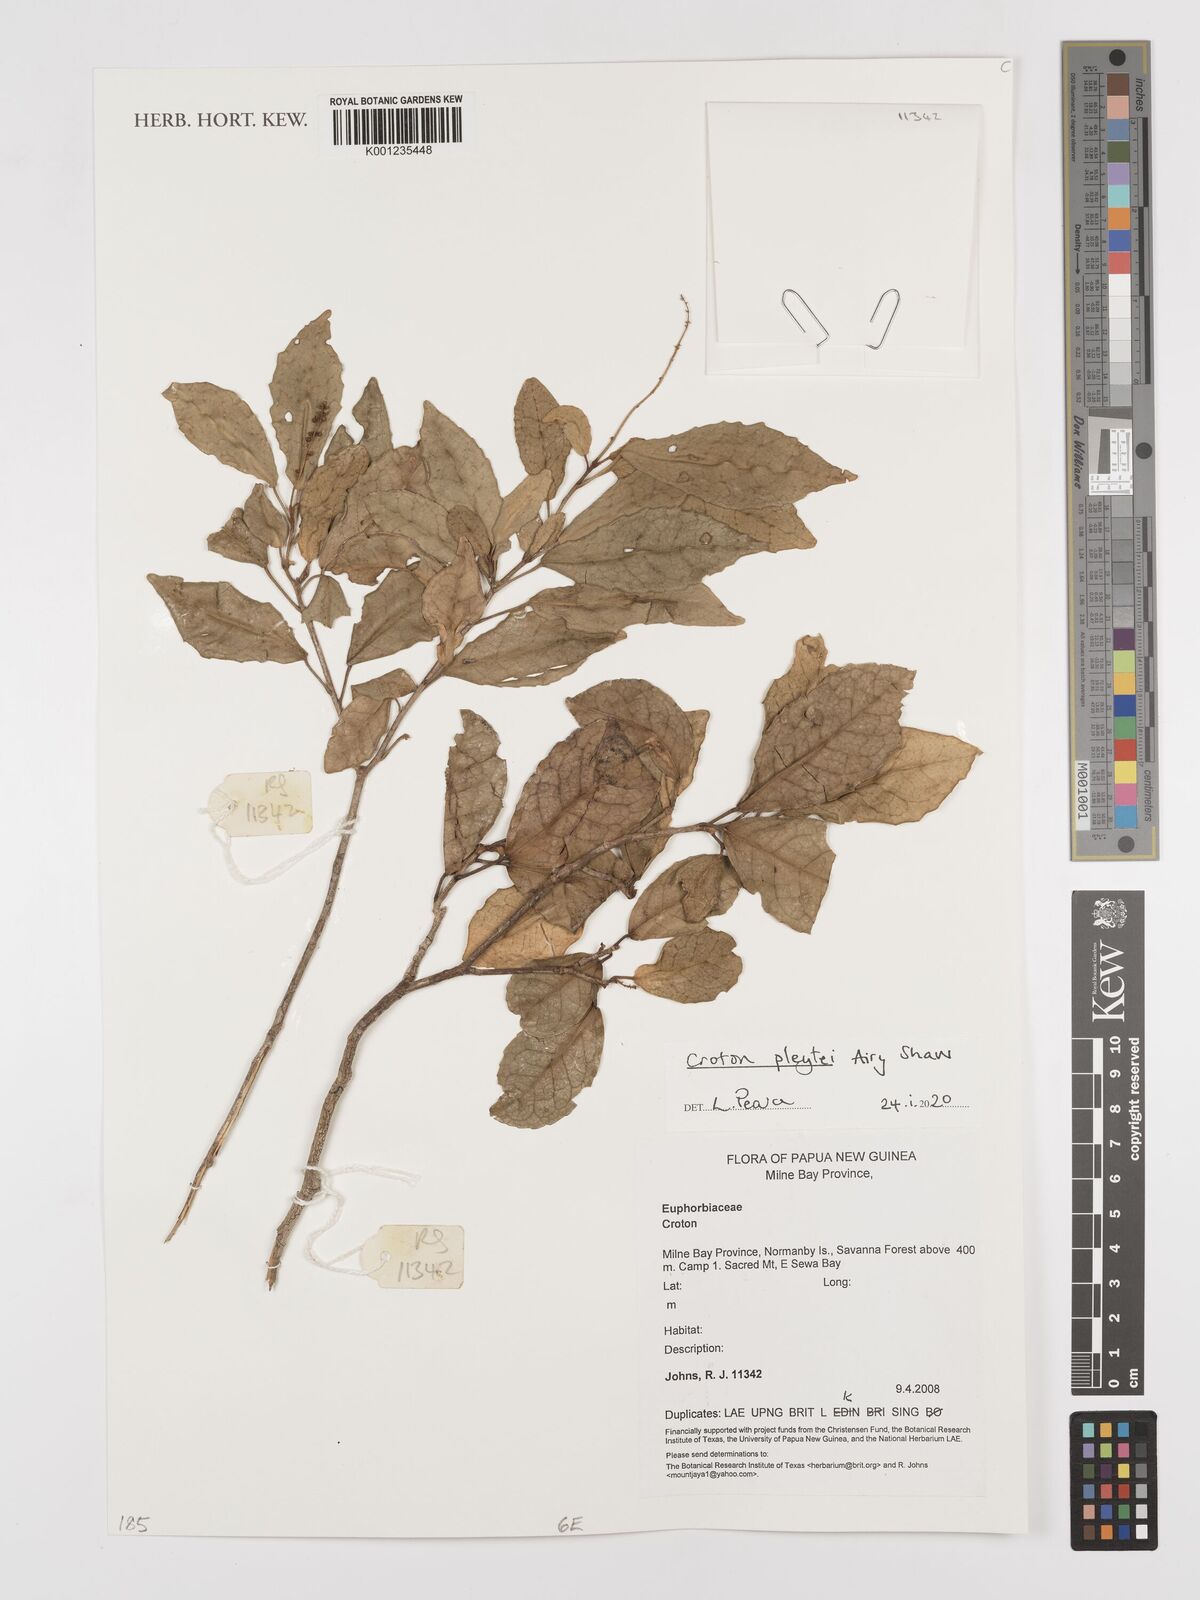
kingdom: Plantae
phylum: Tracheophyta
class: Magnoliopsida
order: Malpighiales
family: Euphorbiaceae
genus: Croton
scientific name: Croton pleytei
